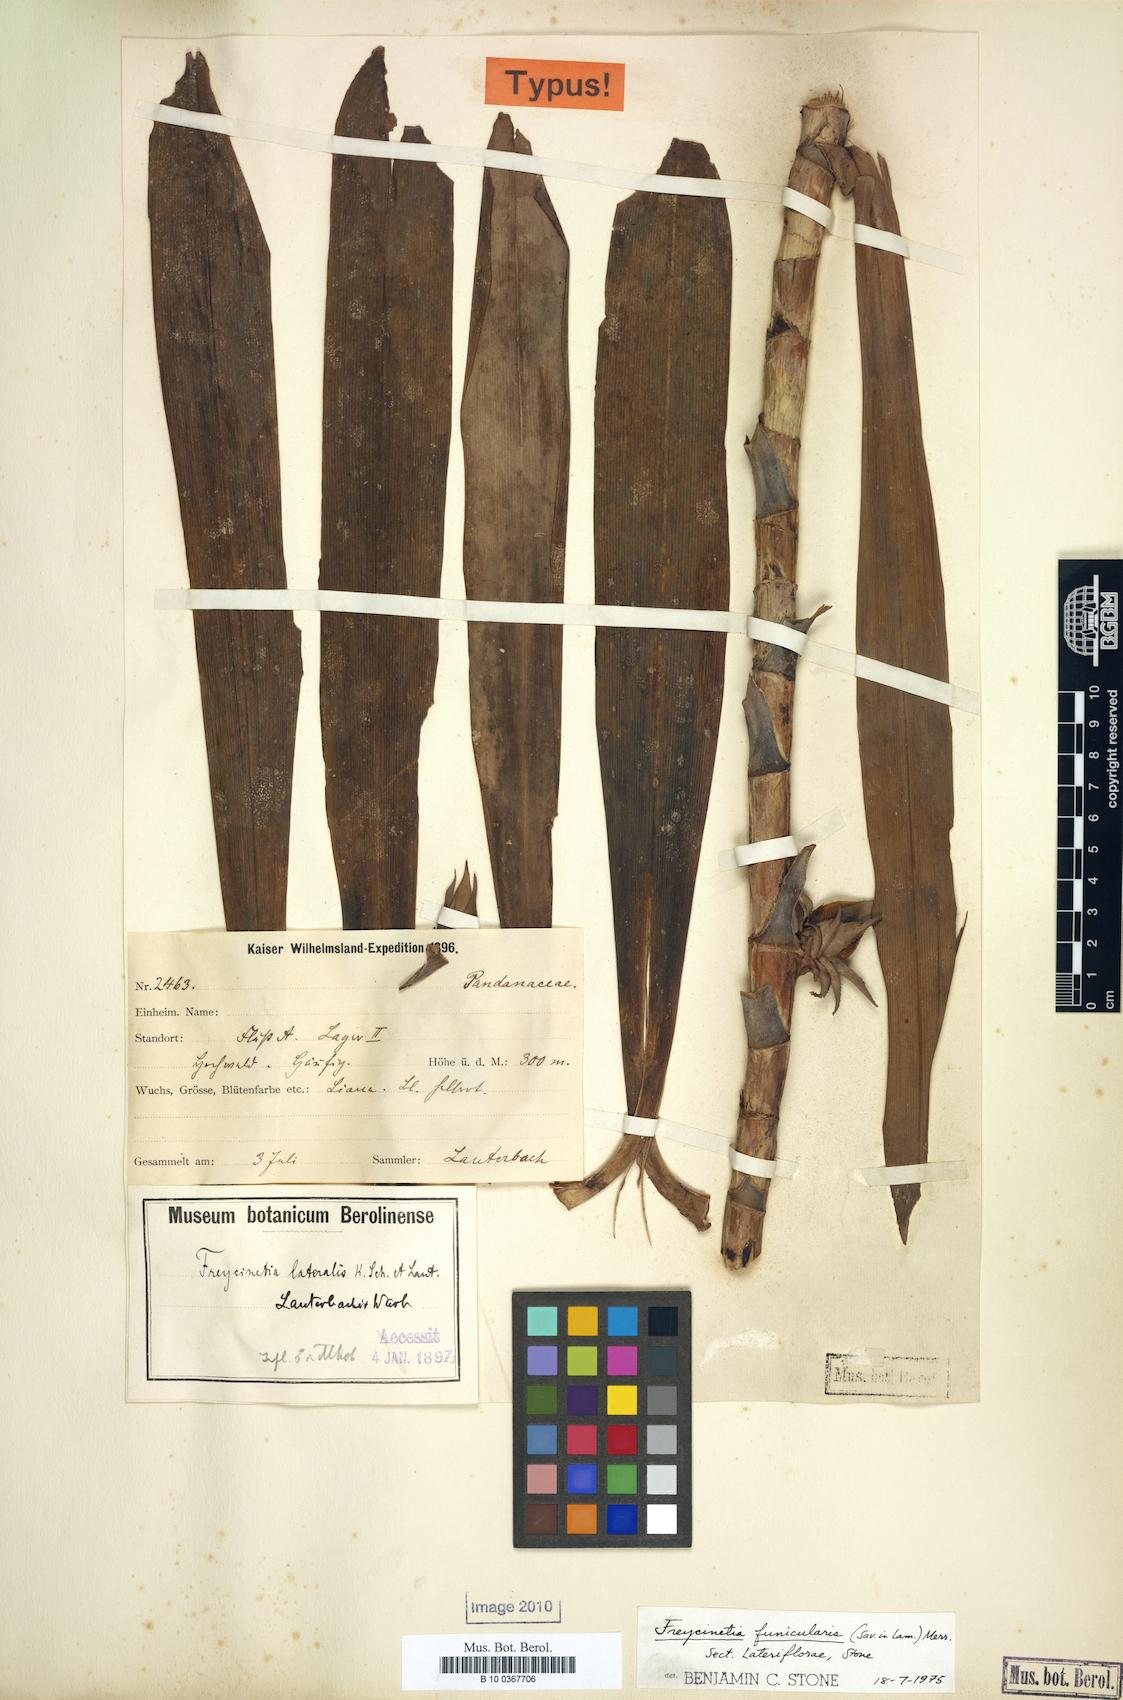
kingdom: Plantae
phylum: Tracheophyta
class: Liliopsida
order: Pandanales
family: Pandanaceae
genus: Freycinetia
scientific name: Freycinetia funicularis
